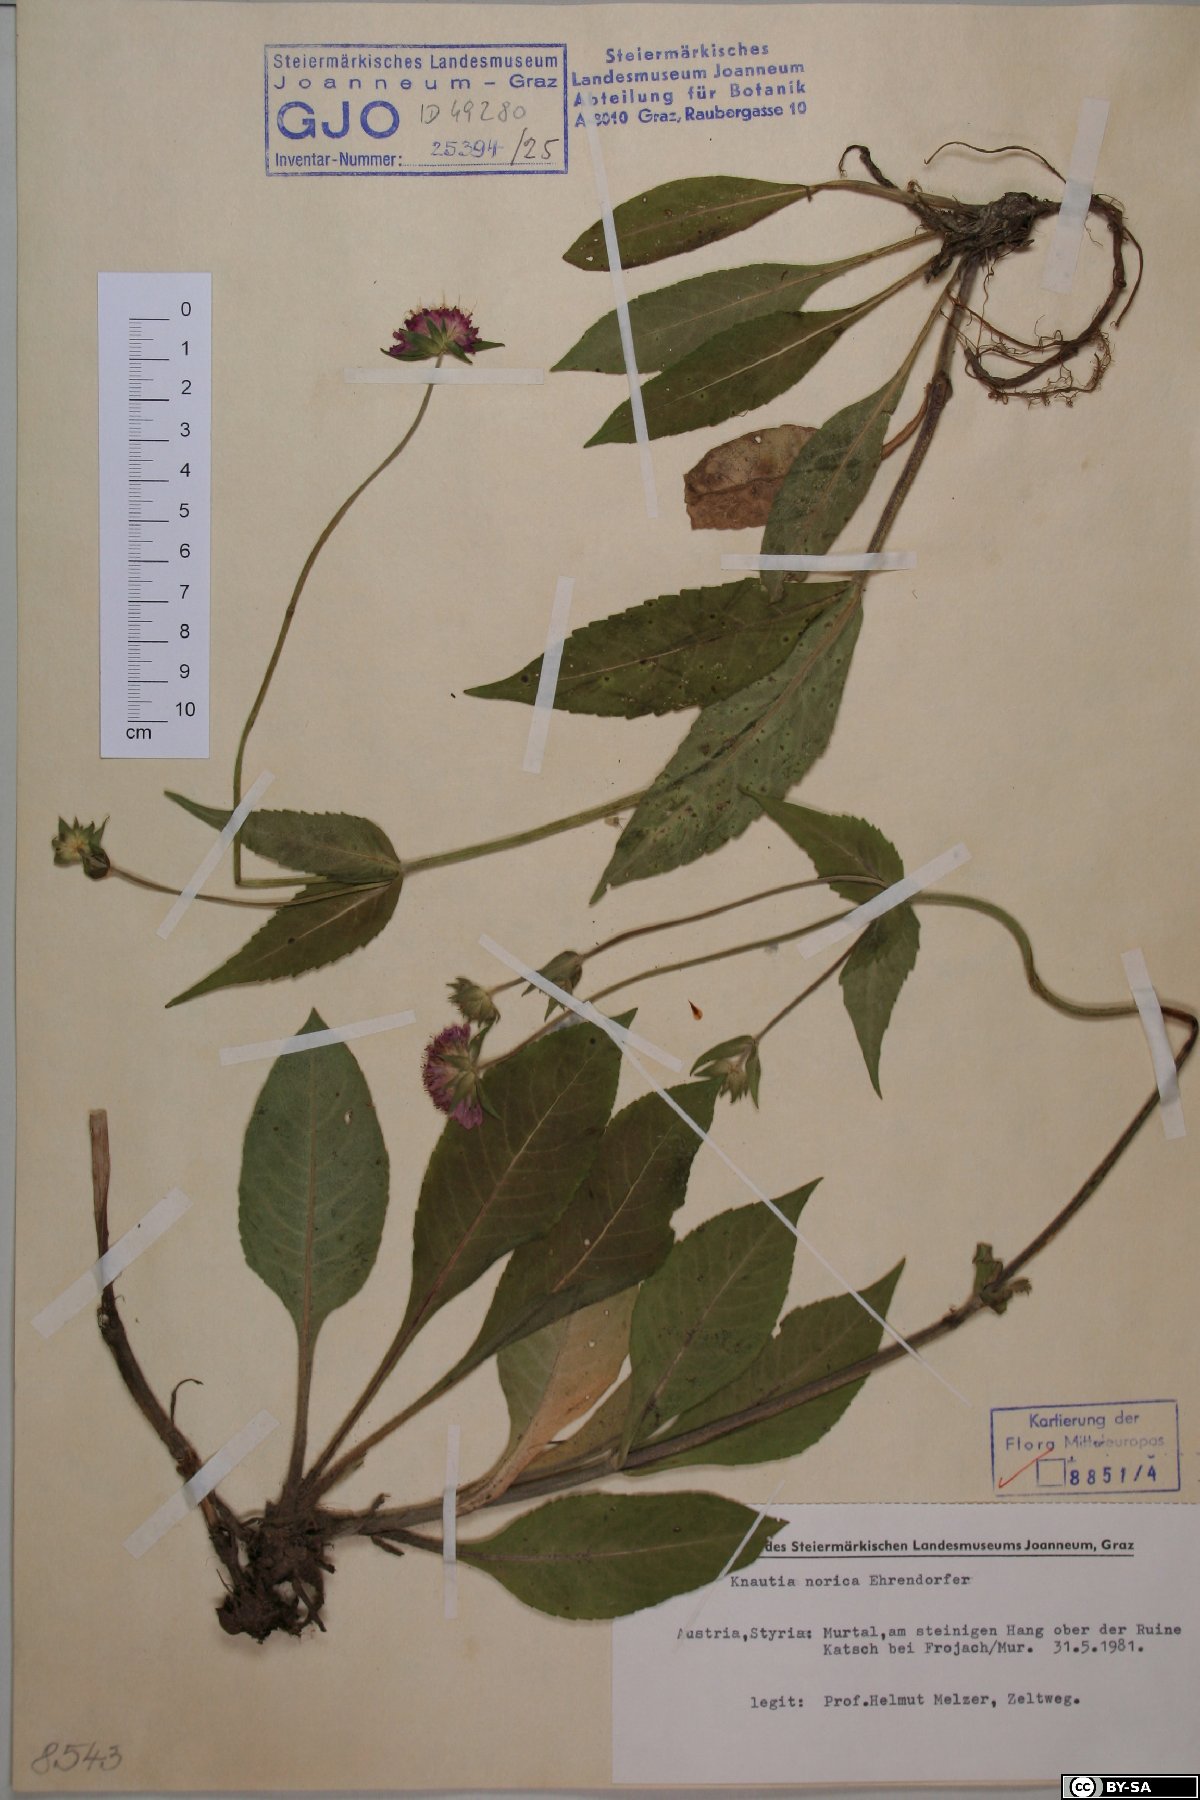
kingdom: Plantae
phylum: Tracheophyta
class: Magnoliopsida
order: Dipsacales
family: Caprifoliaceae
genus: Knautia
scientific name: Knautia norica
